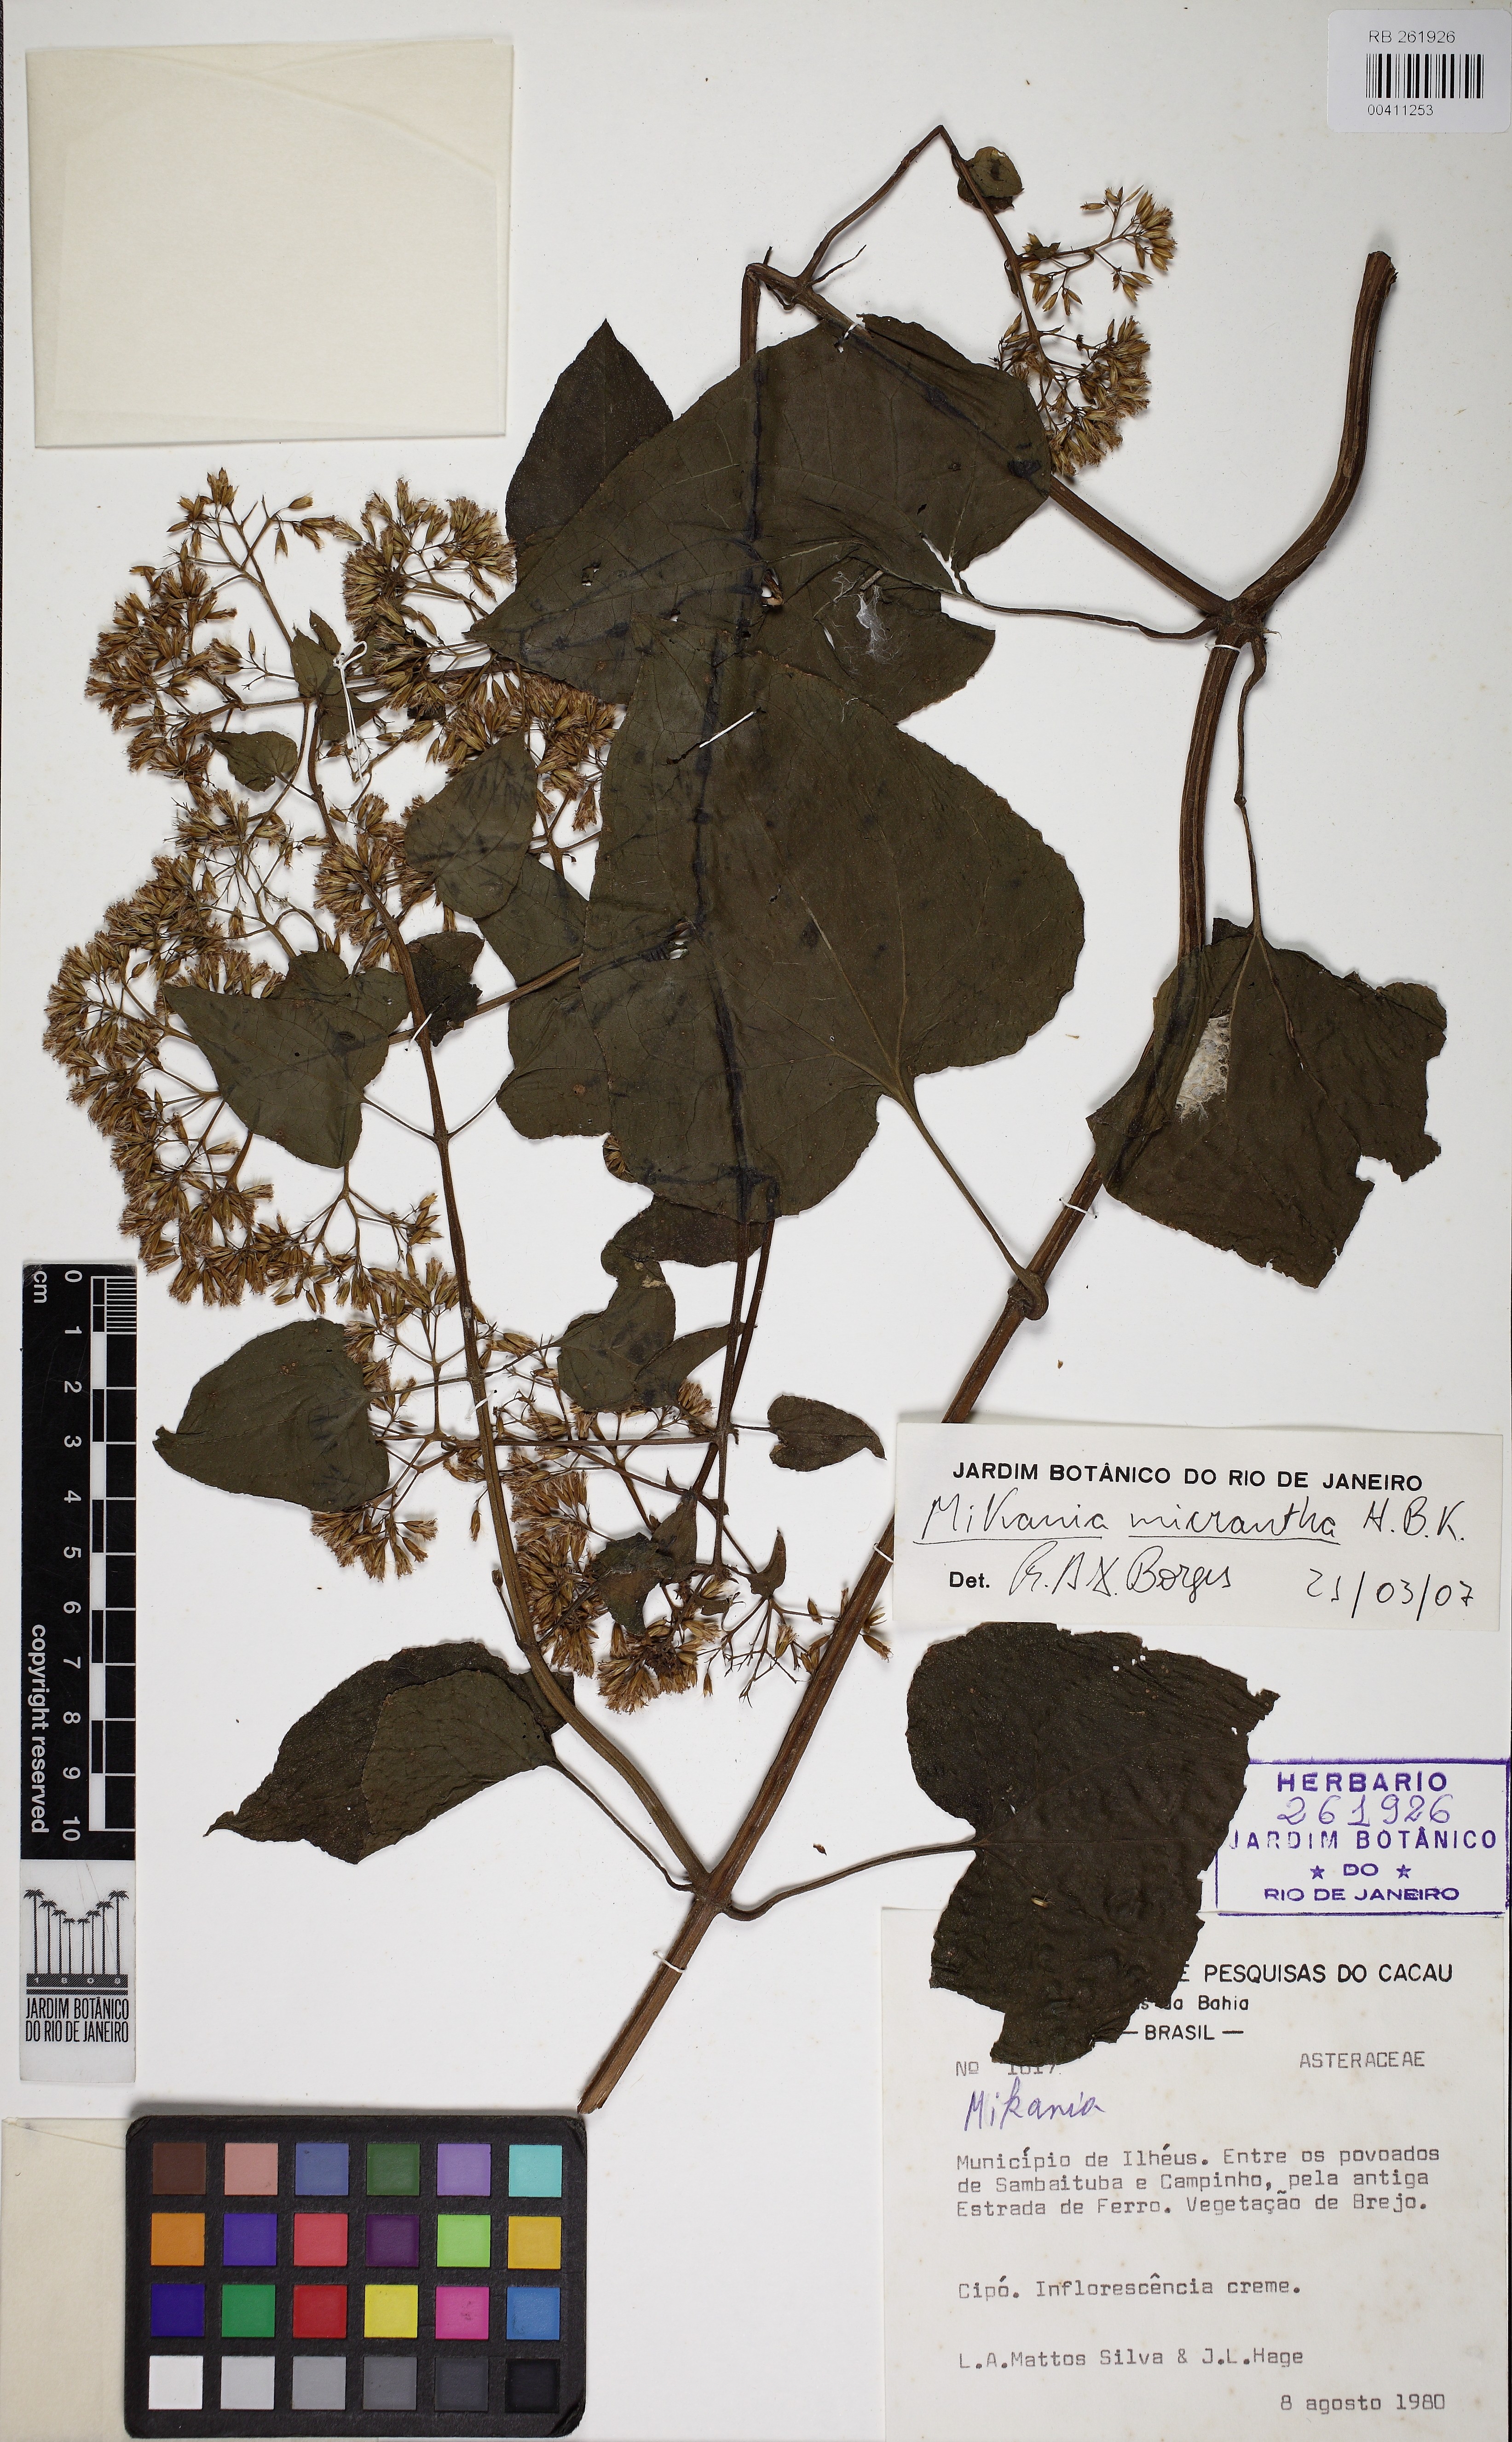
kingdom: Plantae
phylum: Tracheophyta
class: Magnoliopsida
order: Asterales
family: Asteraceae
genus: Mikania
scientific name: Mikania micrantha
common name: Mile-a-minute
